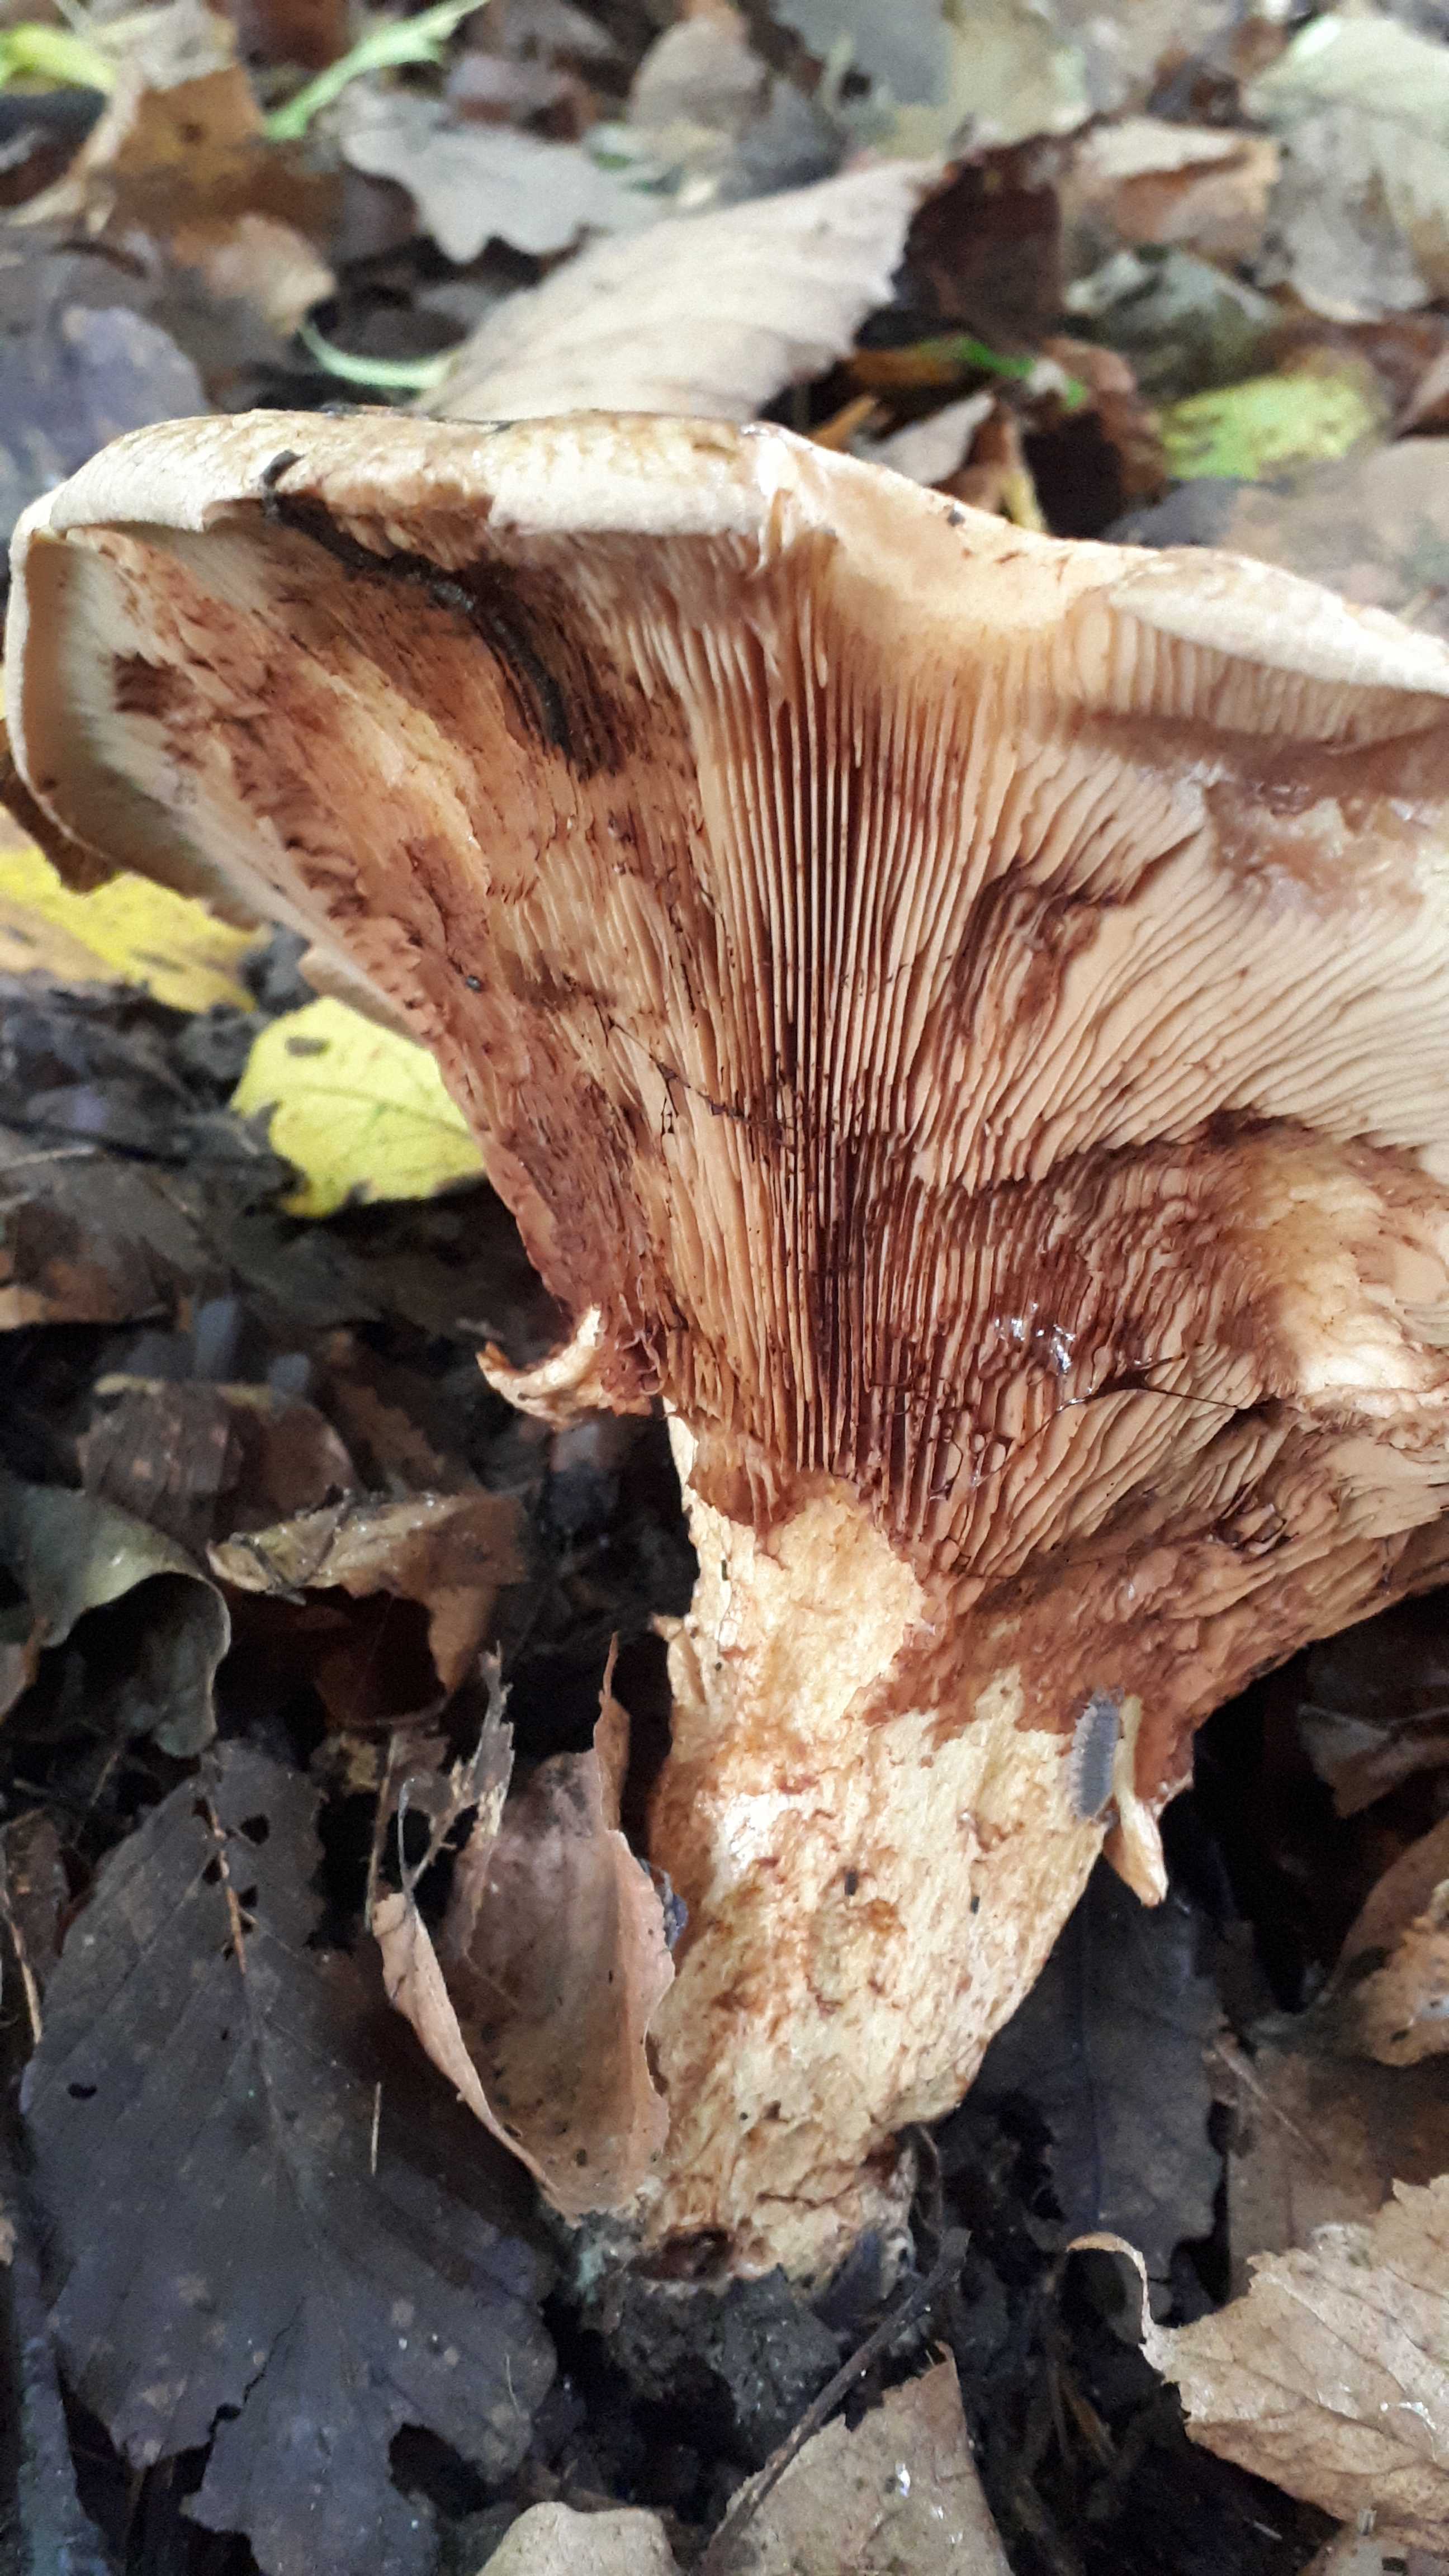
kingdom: Fungi
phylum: Basidiomycota
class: Agaricomycetes
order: Boletales
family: Paxillaceae
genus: Paxillus
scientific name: Paxillus
